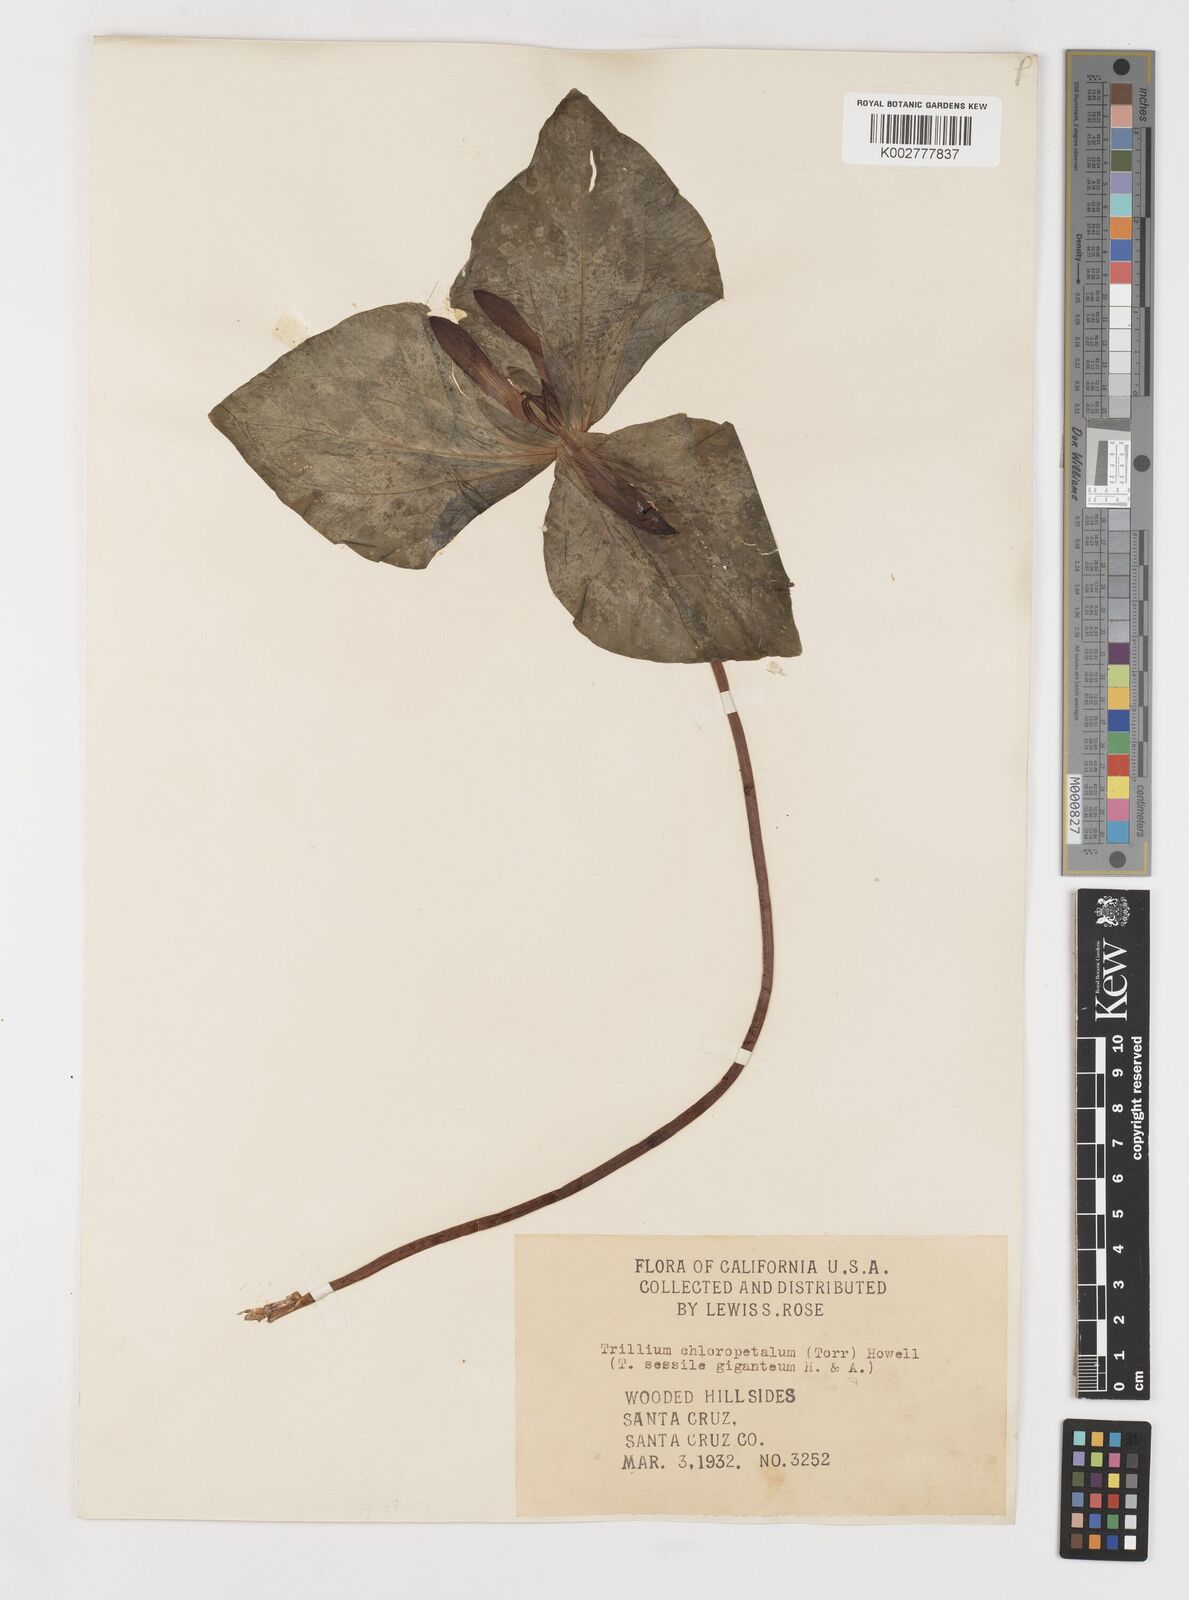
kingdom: Plantae
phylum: Tracheophyta
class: Liliopsida
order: Liliales
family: Melanthiaceae
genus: Trillium
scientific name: Trillium chloropetalum
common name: Giant trillium
